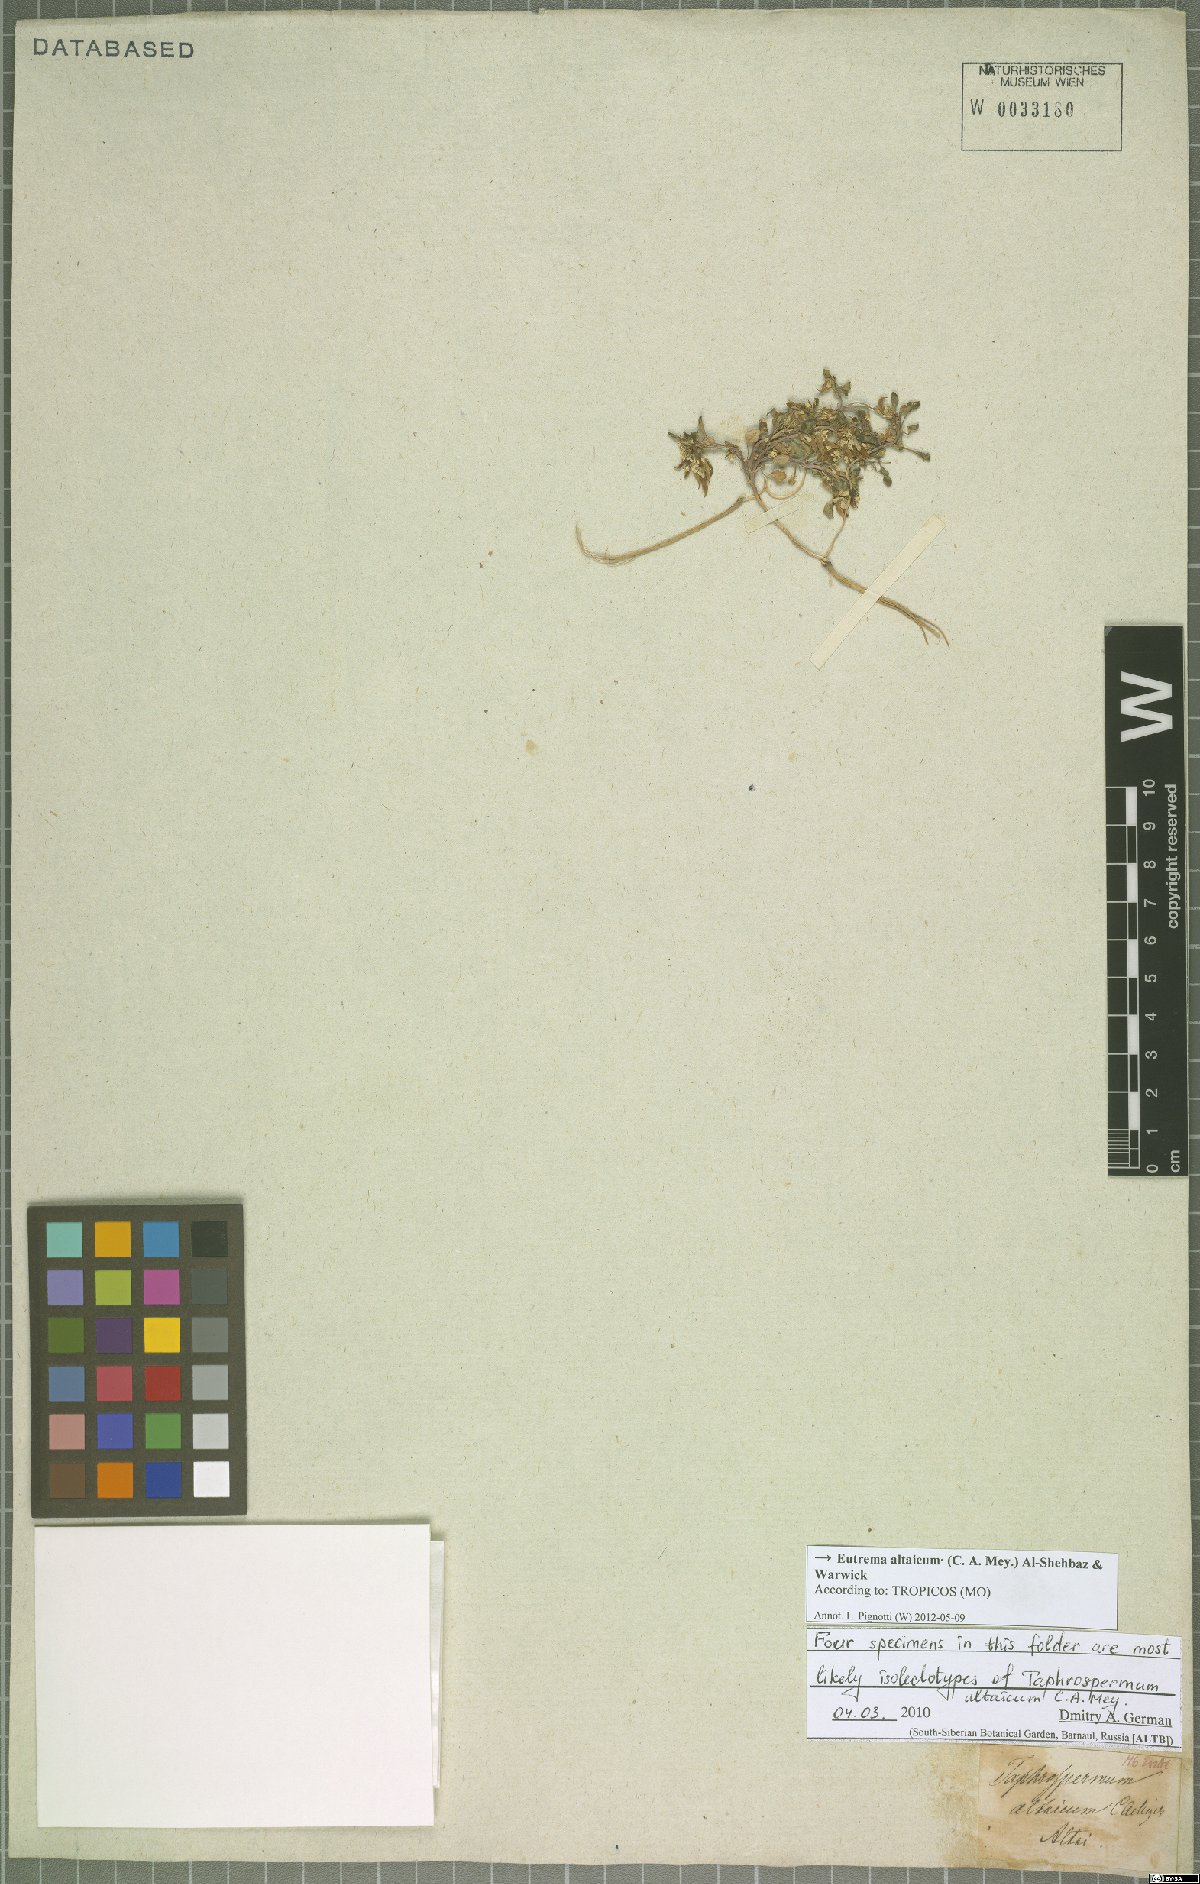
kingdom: Plantae
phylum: Tracheophyta
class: Magnoliopsida
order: Brassicales
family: Brassicaceae
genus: Eutrema
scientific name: Eutrema altaicum
